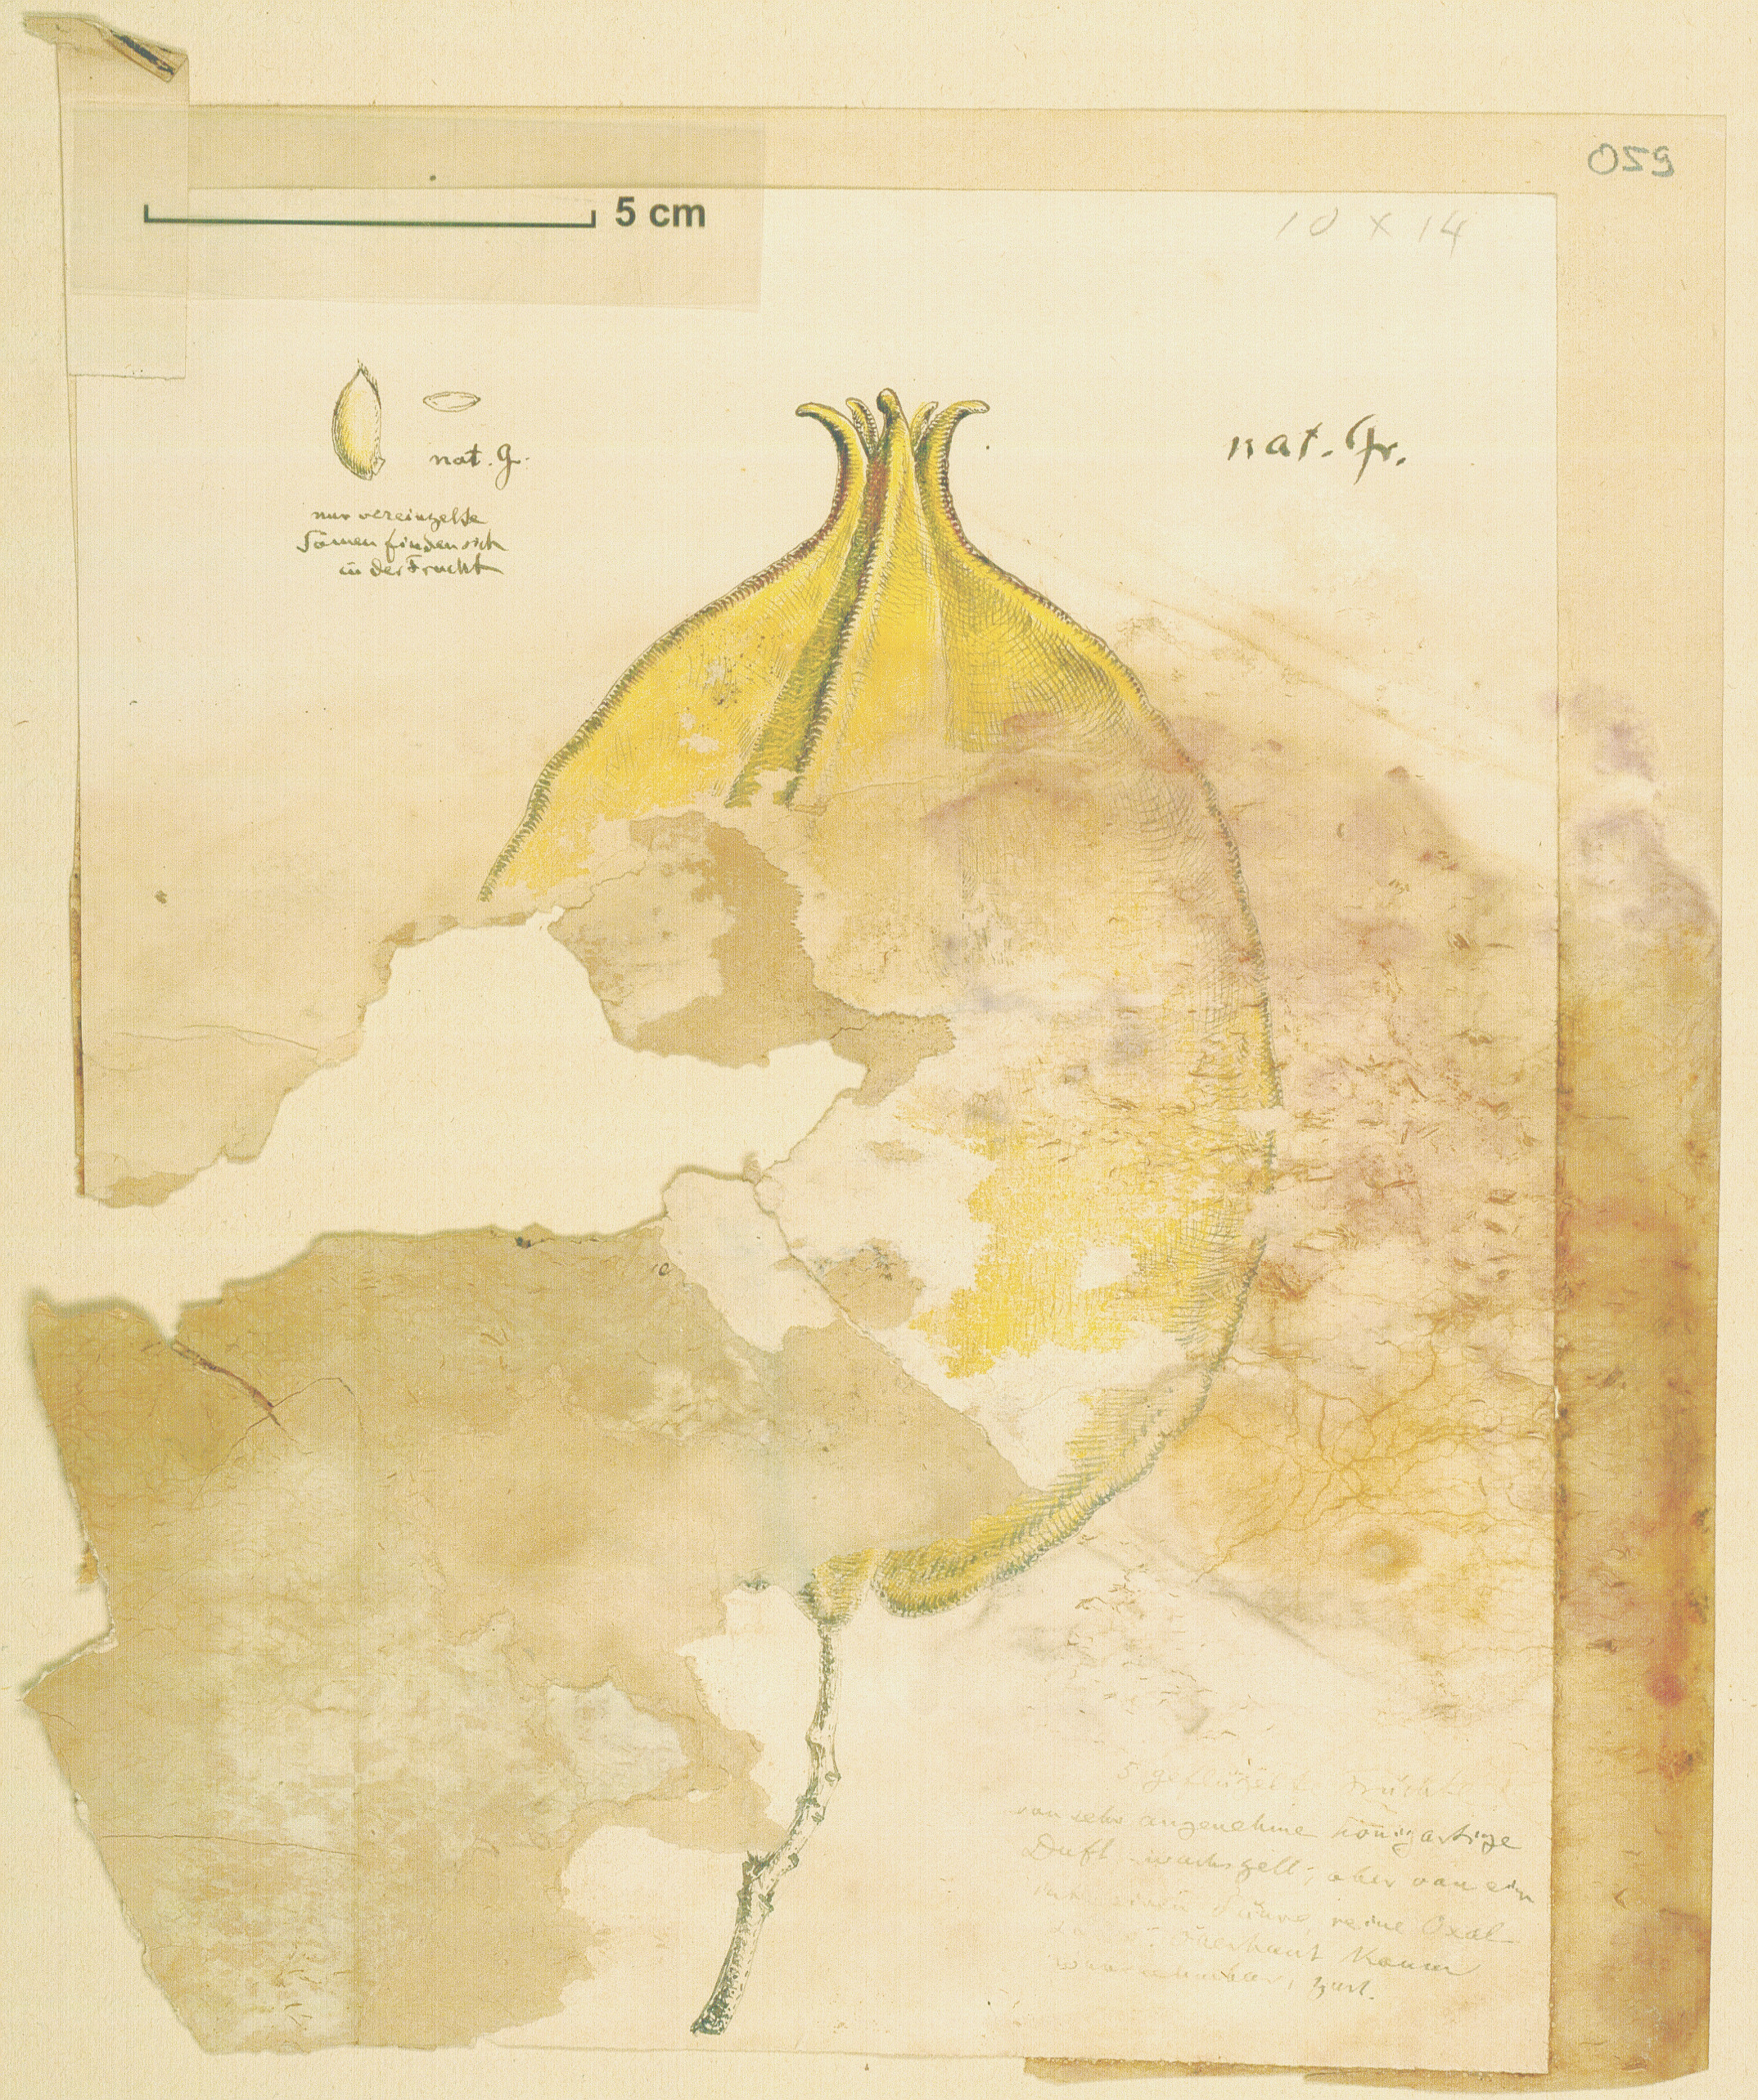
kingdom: Plantae
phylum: Tracheophyta
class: Magnoliopsida
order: Oxalidales
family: Oxalidaceae
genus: Averrhoa
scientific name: Averrhoa carambola
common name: Blimbing
